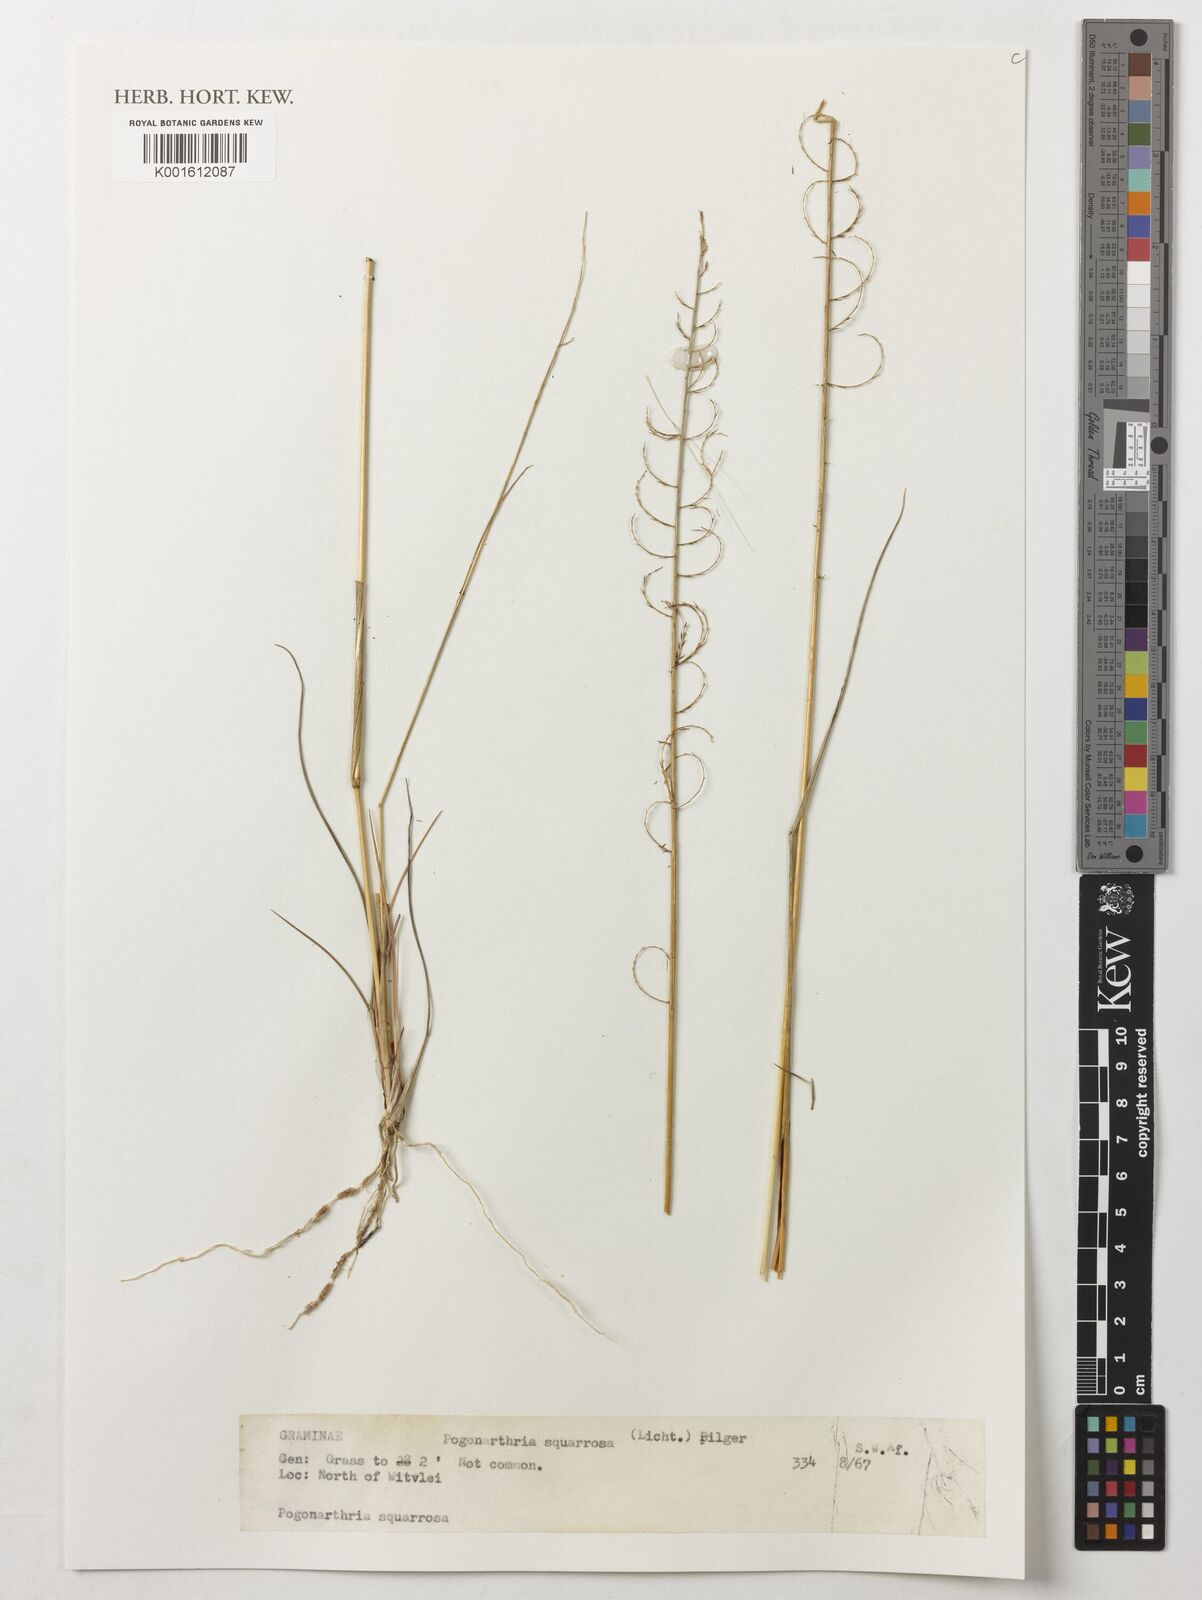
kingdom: Plantae
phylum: Tracheophyta
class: Liliopsida
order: Poales
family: Poaceae
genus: Pogonarthria
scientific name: Pogonarthria squarrosa
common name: Grass
